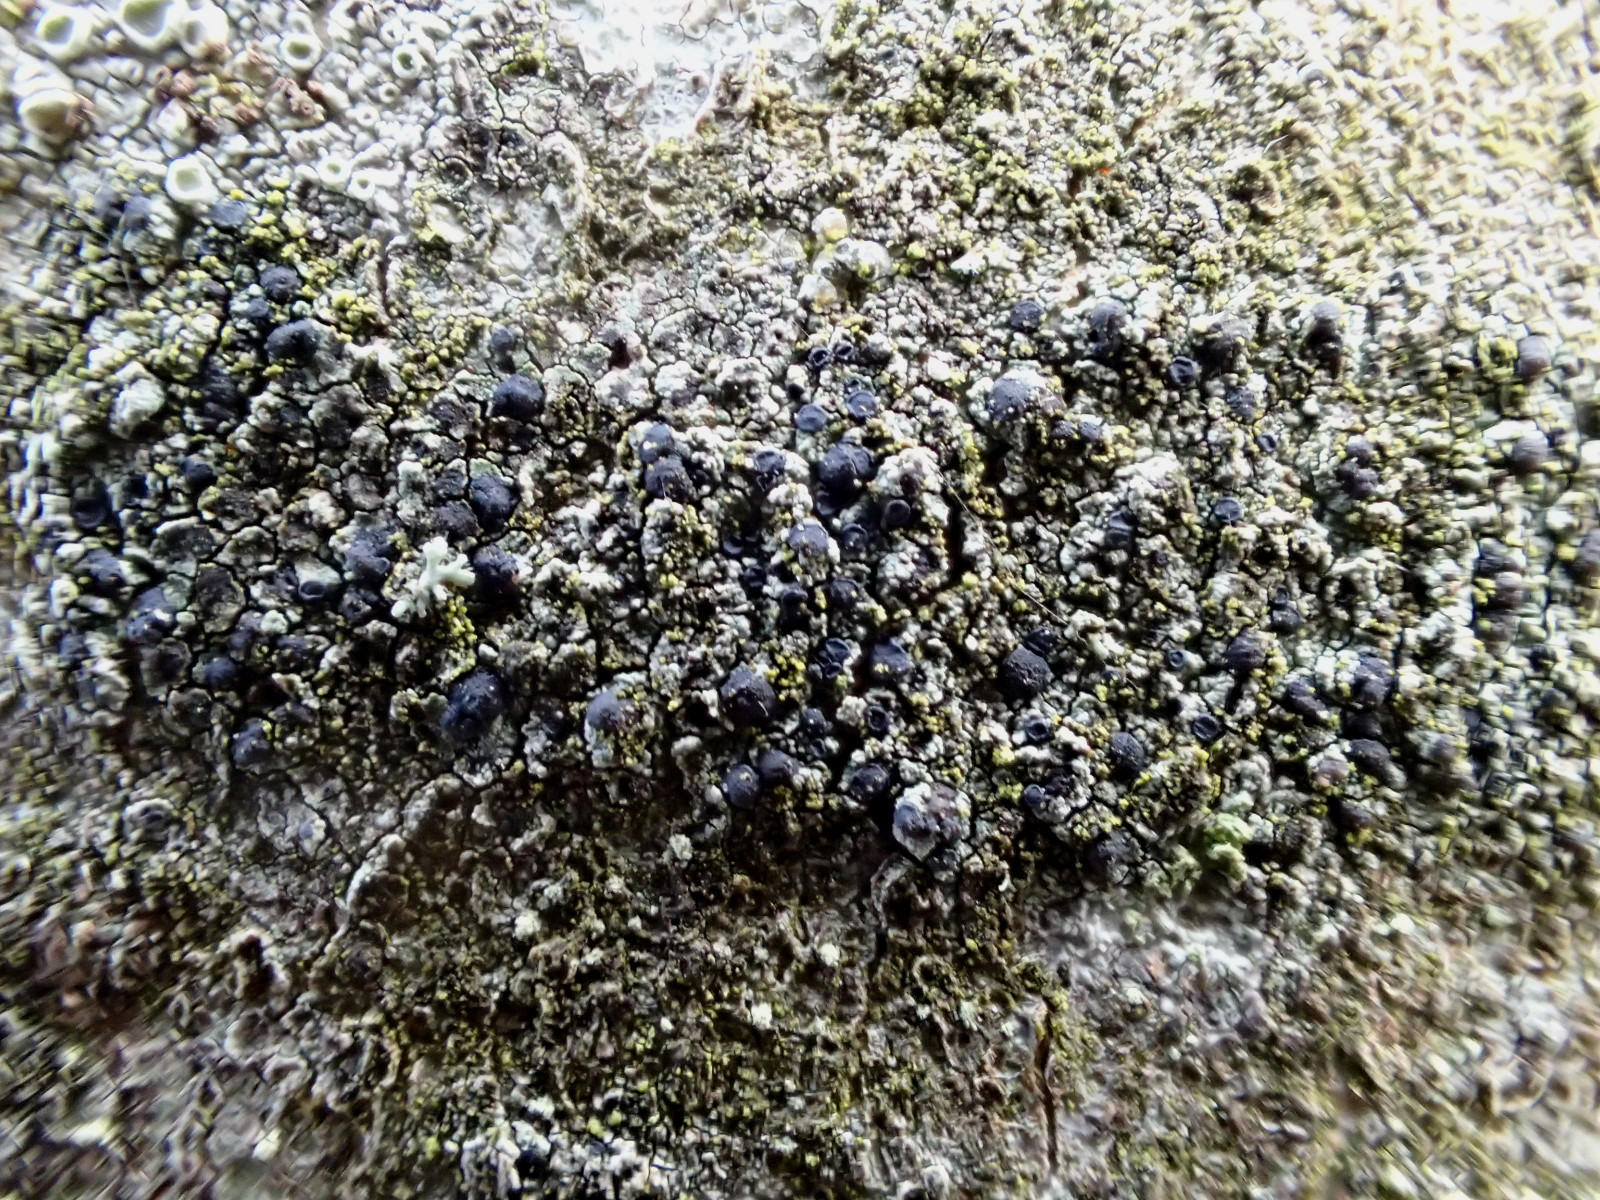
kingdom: Fungi
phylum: Ascomycota
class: Lecanoromycetes
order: Lecanorales
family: Lecanoraceae
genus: Lecidella
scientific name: Lecidella elaeochroma
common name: grågrøn skivelav
